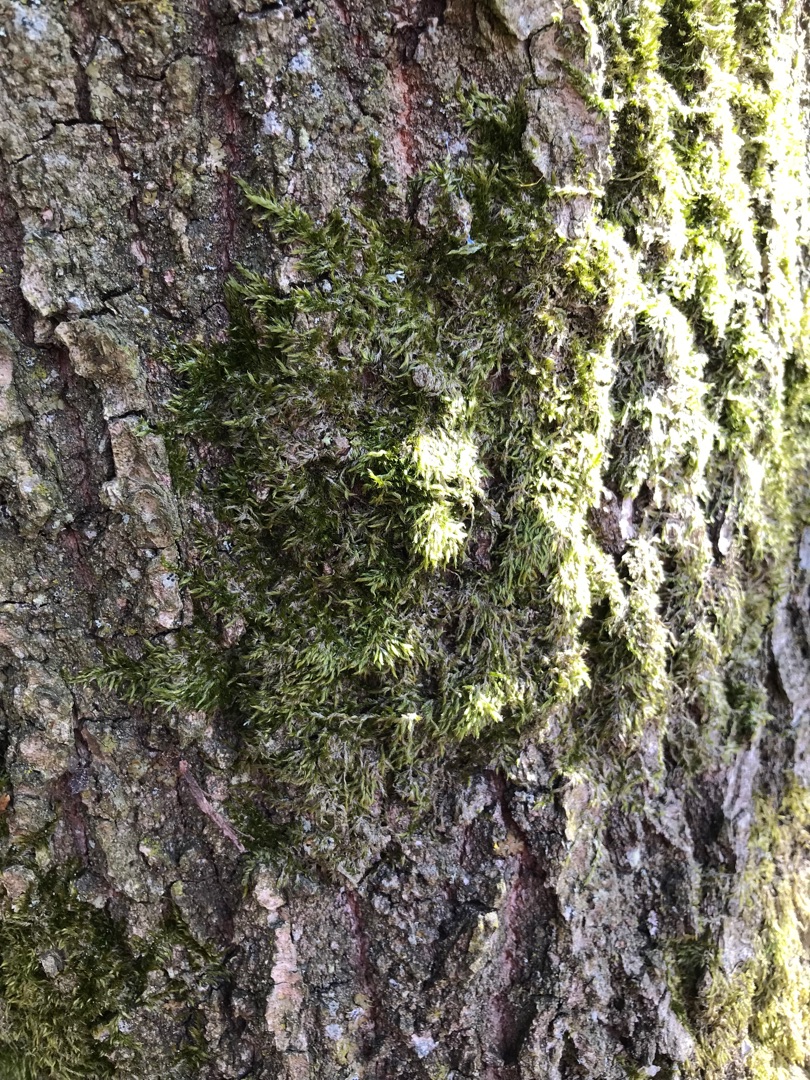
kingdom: Plantae
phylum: Bryophyta
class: Bryopsida
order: Hypnales
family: Hypnaceae
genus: Hypnum
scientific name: Hypnum
